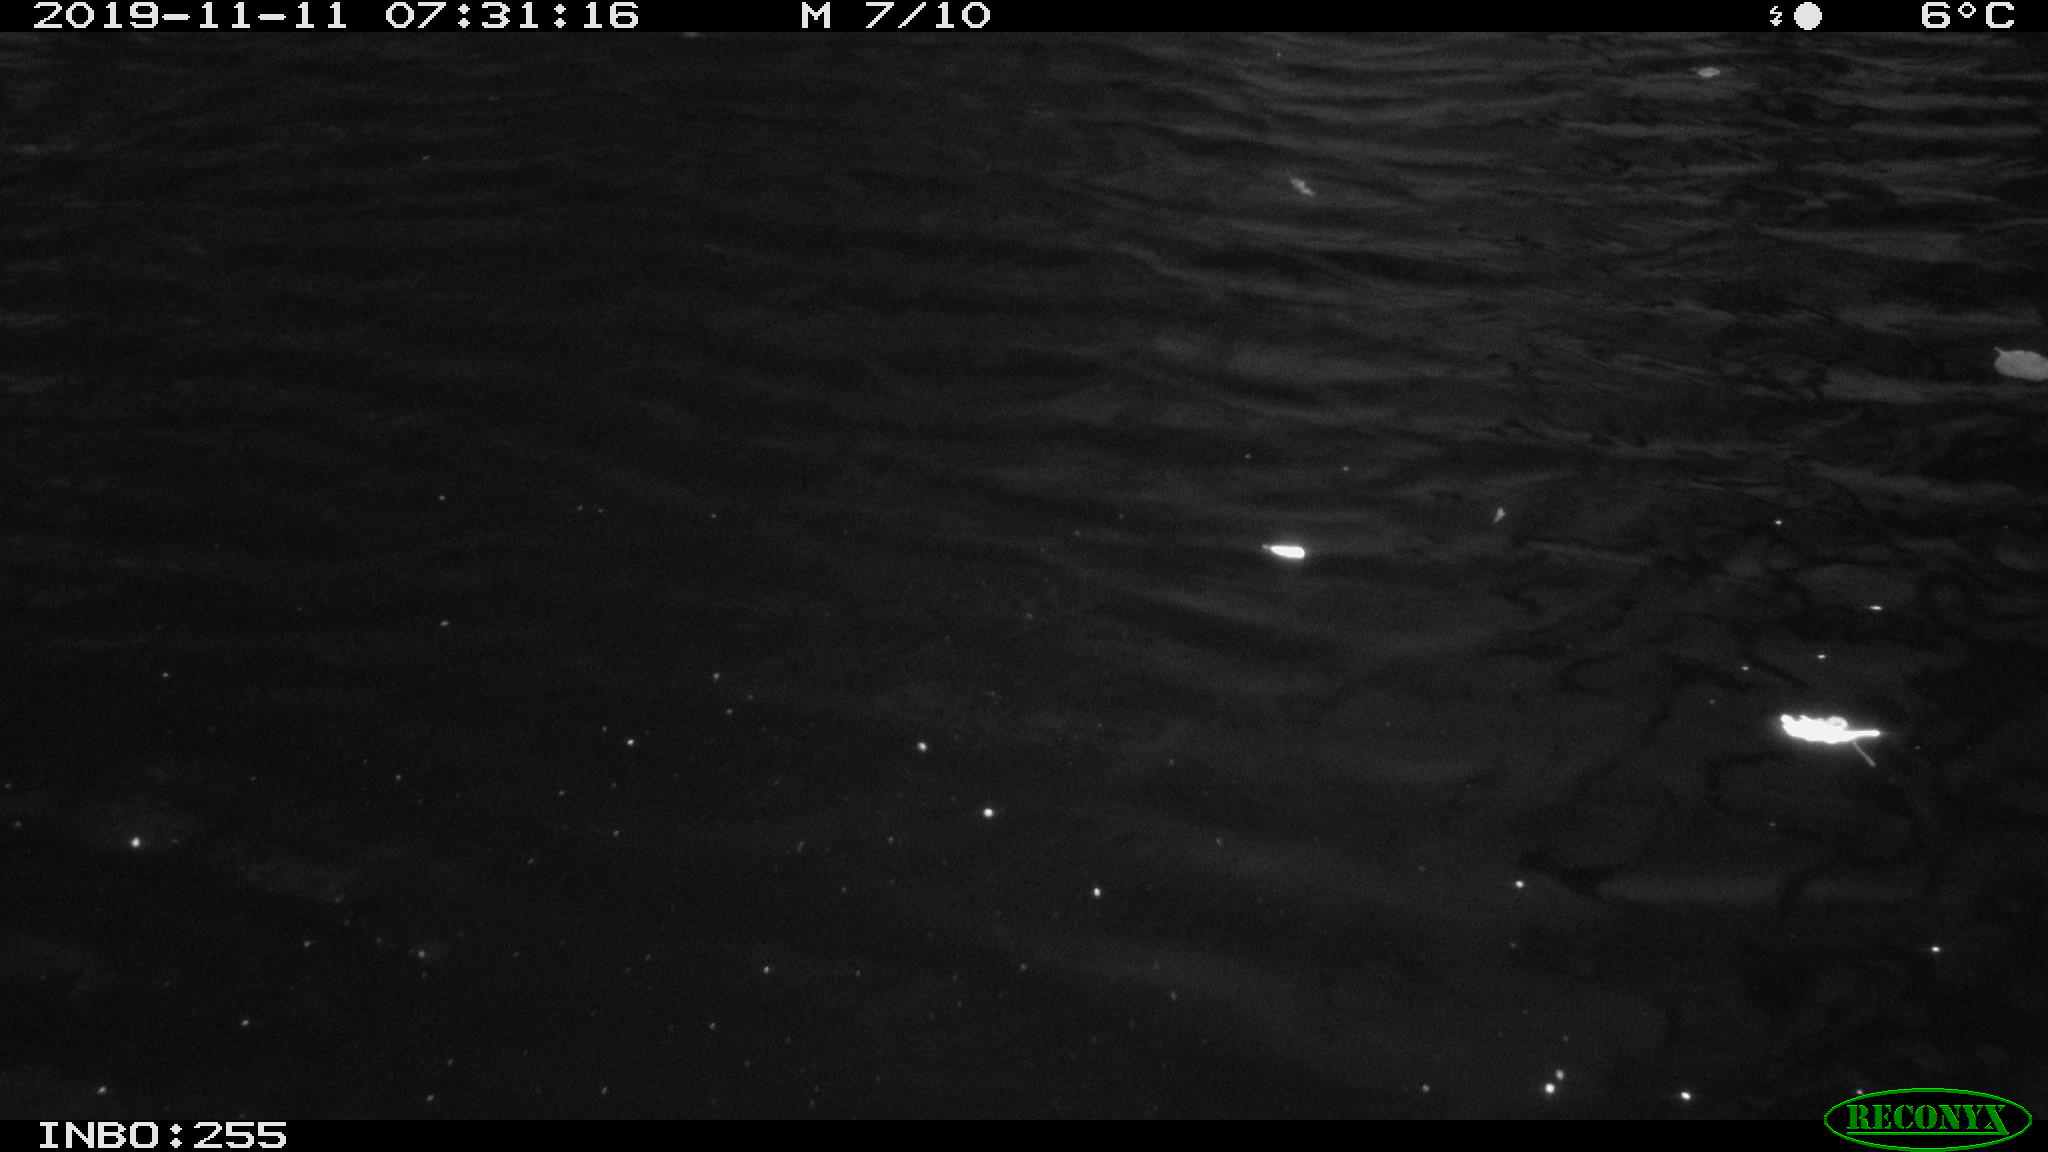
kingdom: Animalia
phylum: Chordata
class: Aves
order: Gruiformes
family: Rallidae
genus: Gallinula
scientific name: Gallinula chloropus
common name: Common moorhen
